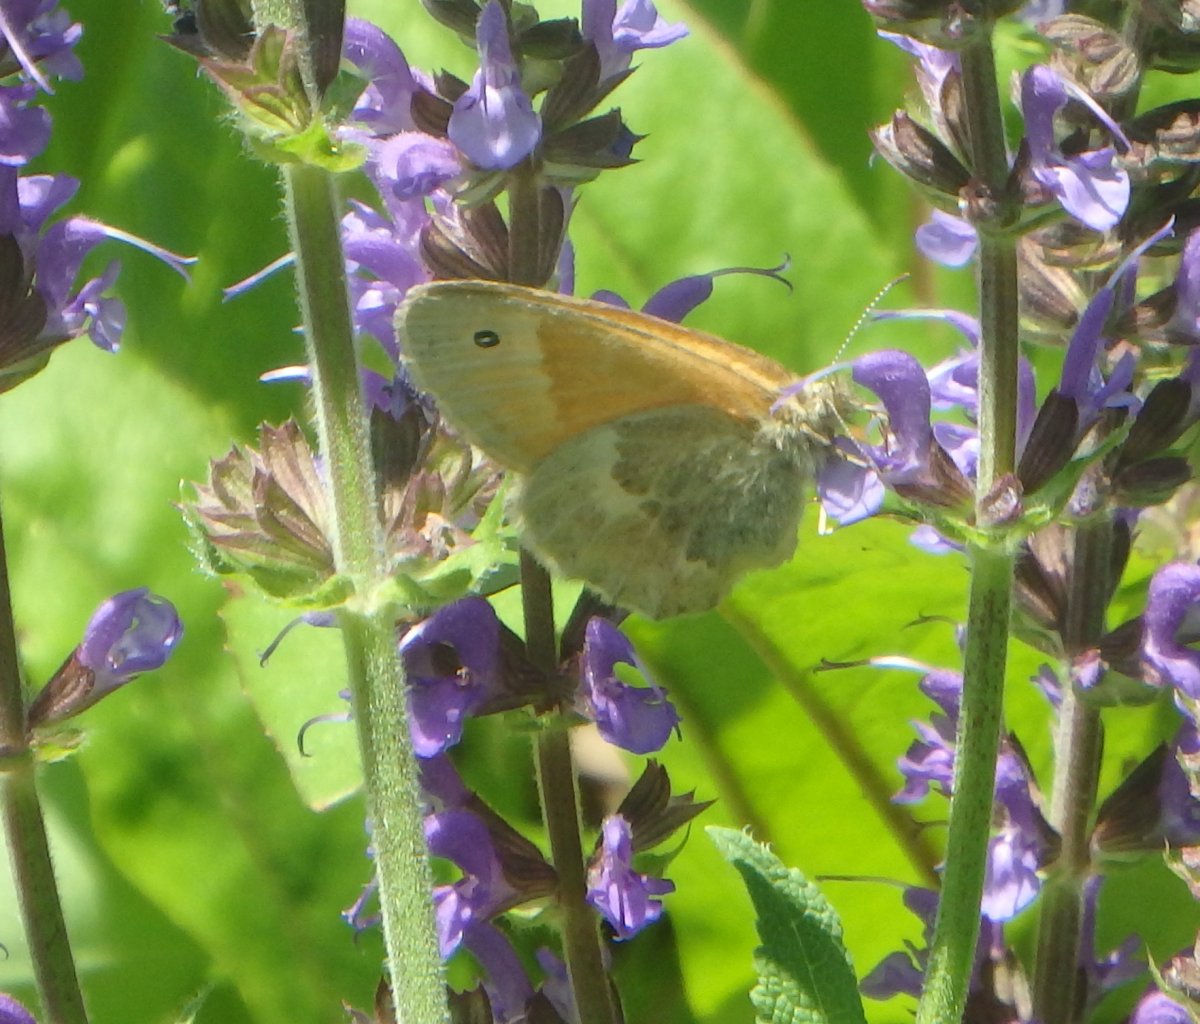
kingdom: Animalia
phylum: Arthropoda
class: Insecta
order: Lepidoptera
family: Nymphalidae
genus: Coenonympha
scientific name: Coenonympha tullia
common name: Large Heath
